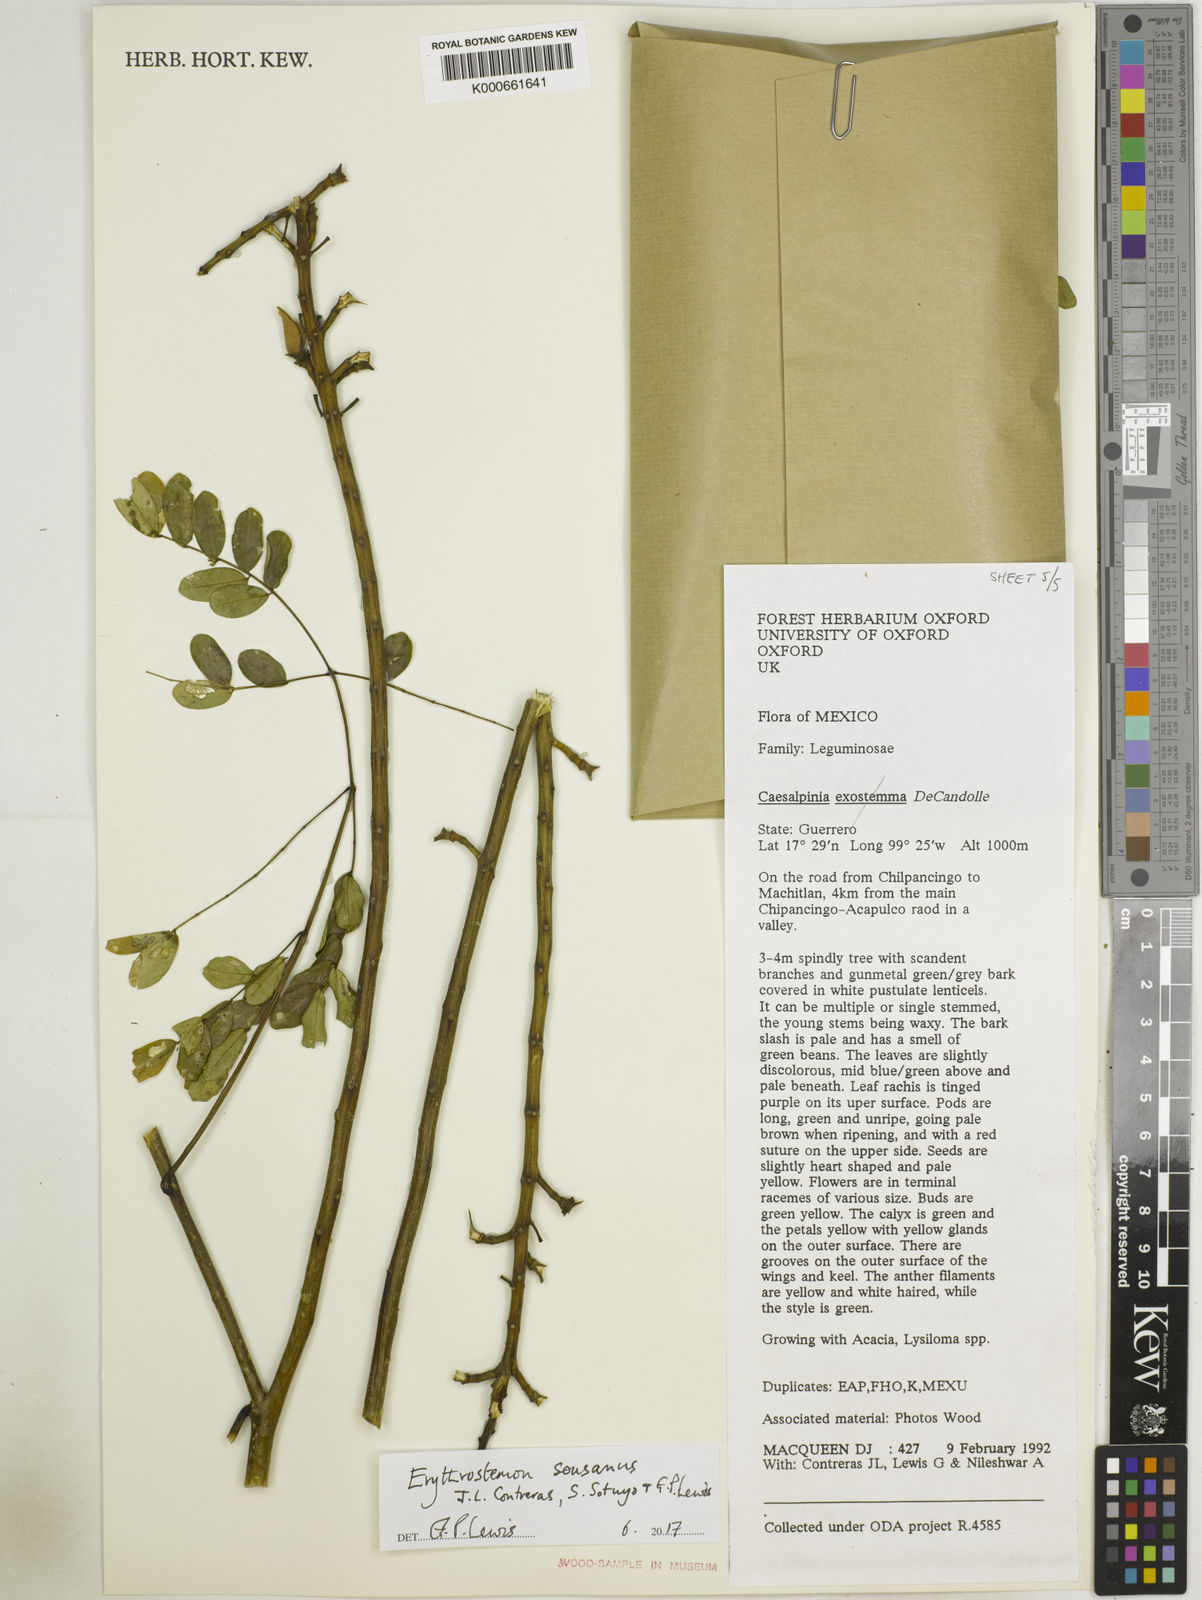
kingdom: Plantae
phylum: Tracheophyta
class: Magnoliopsida
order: Fabales
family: Fabaceae
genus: Caesalpinia
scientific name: Caesalpinia
